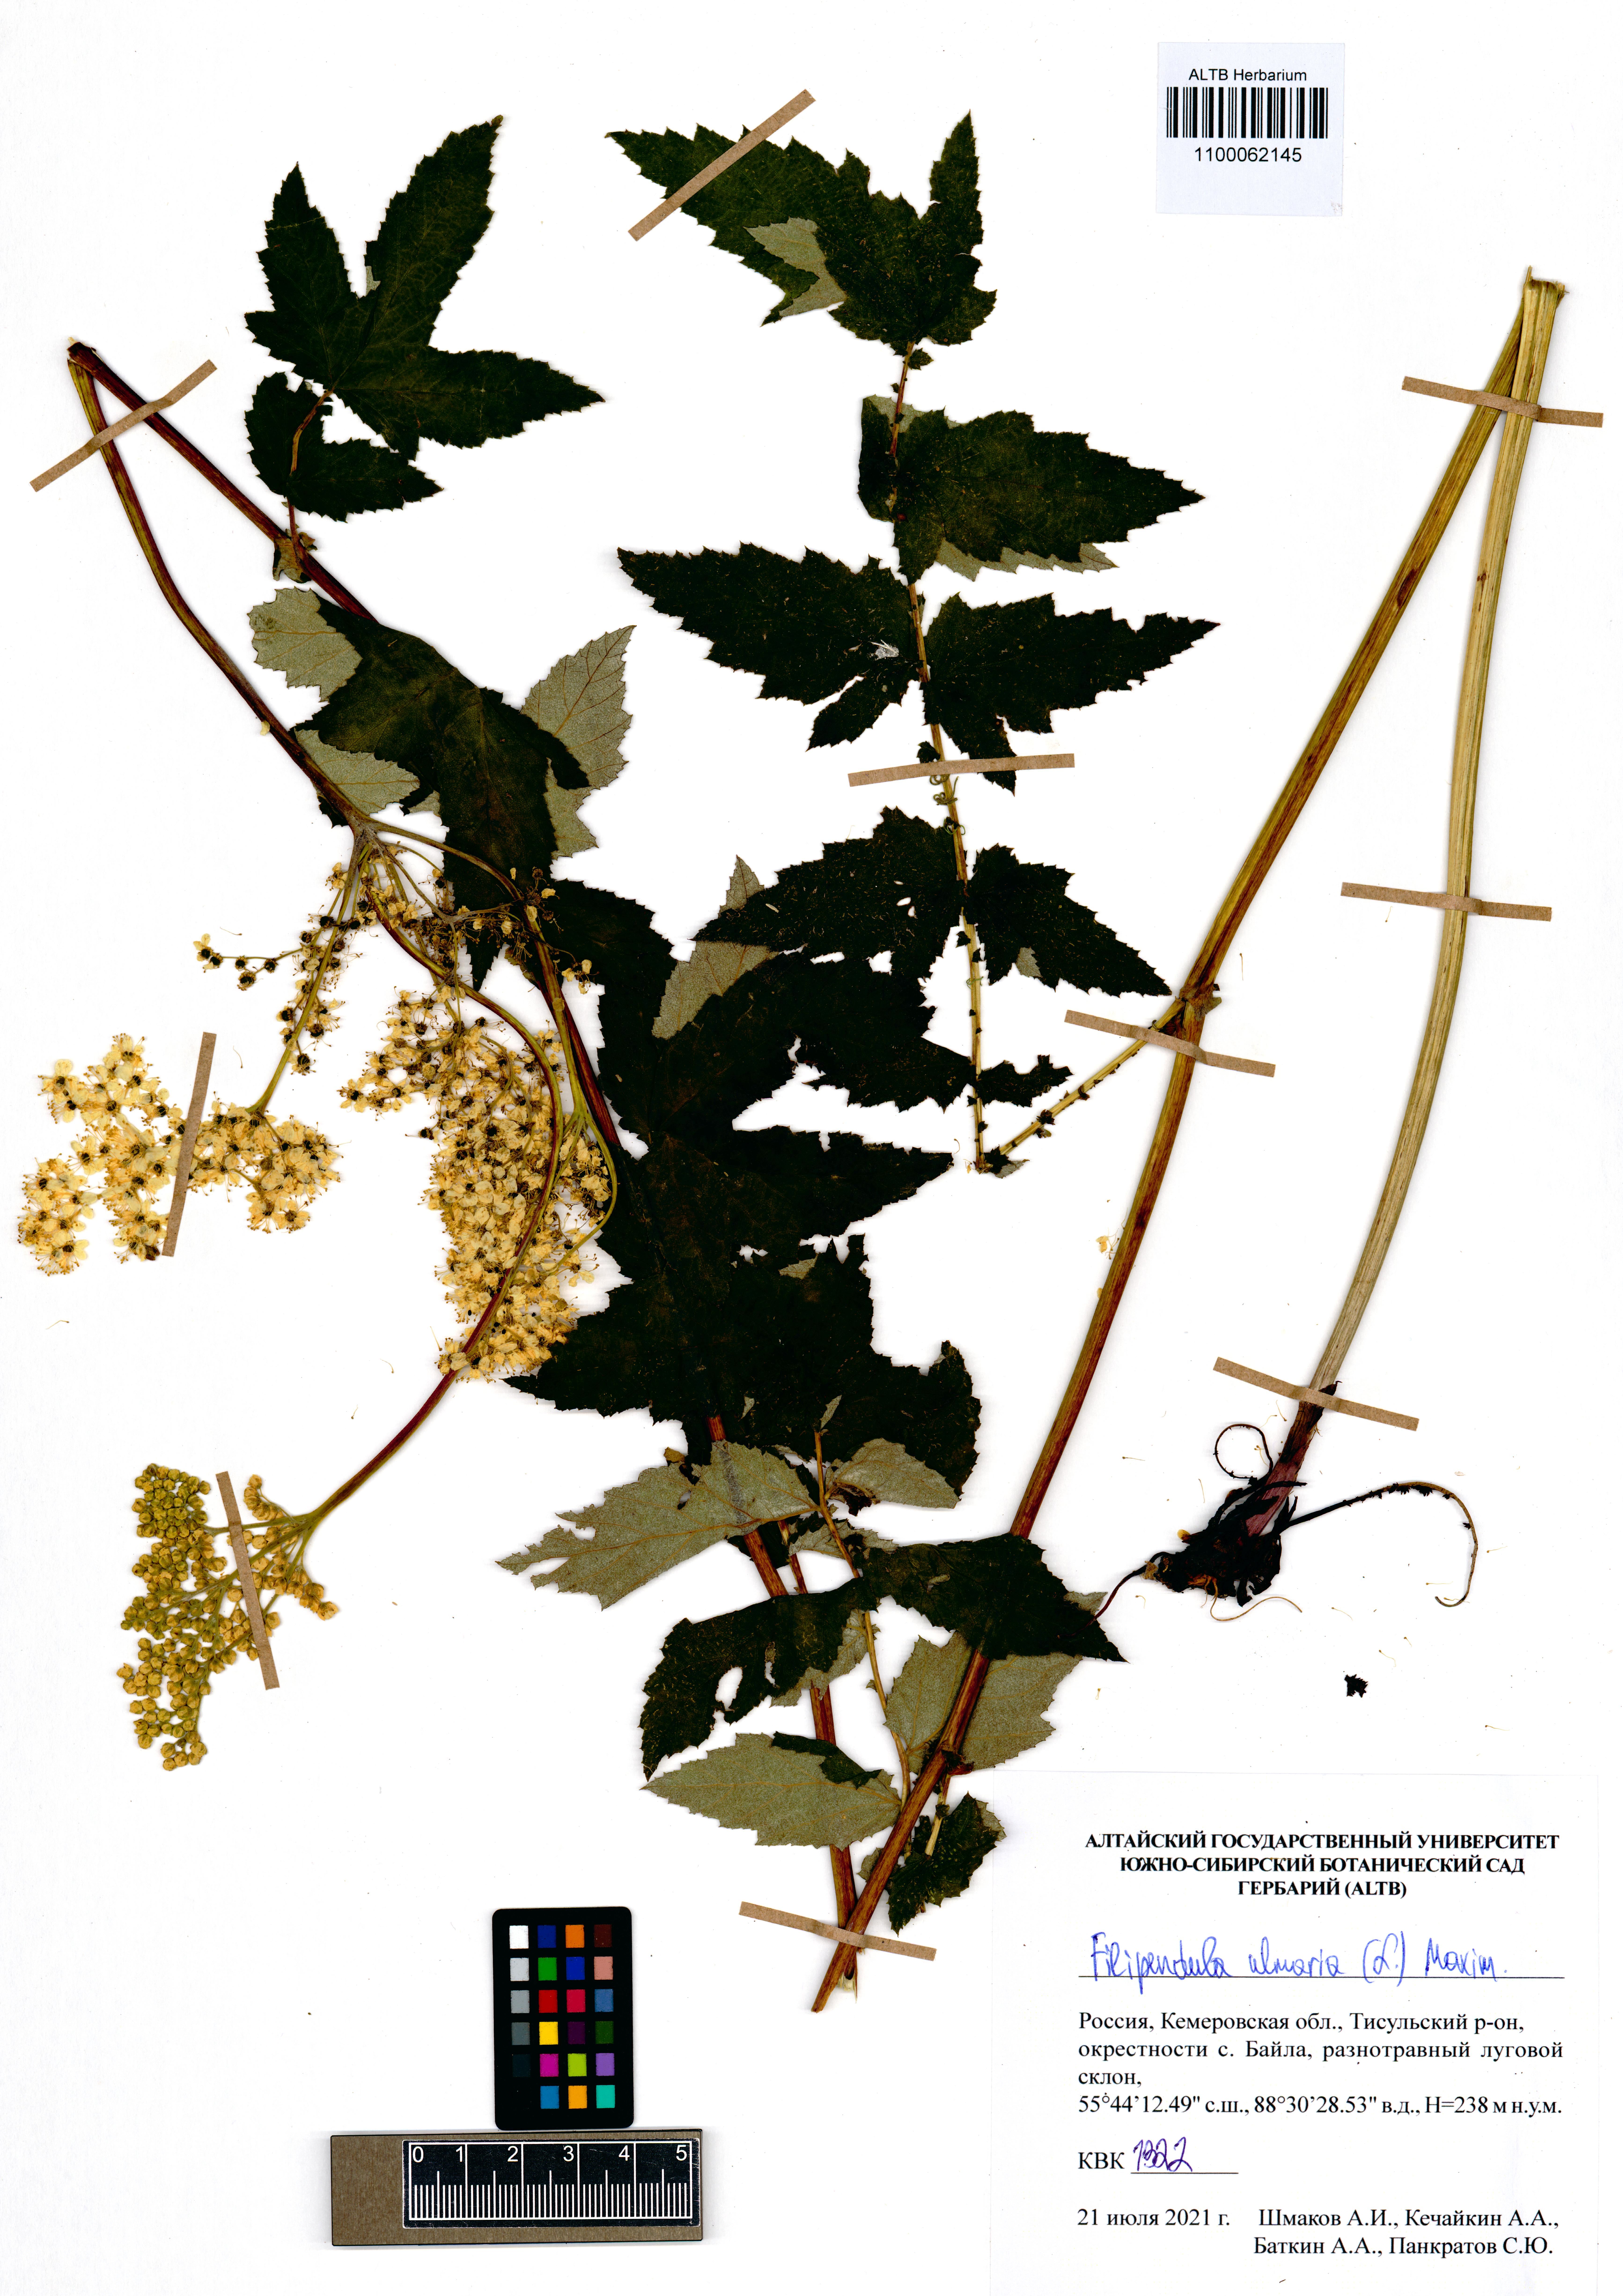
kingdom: Plantae
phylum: Tracheophyta
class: Magnoliopsida
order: Rosales
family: Rosaceae
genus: Filipendula
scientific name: Filipendula ulmaria
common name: Meadowsweet
